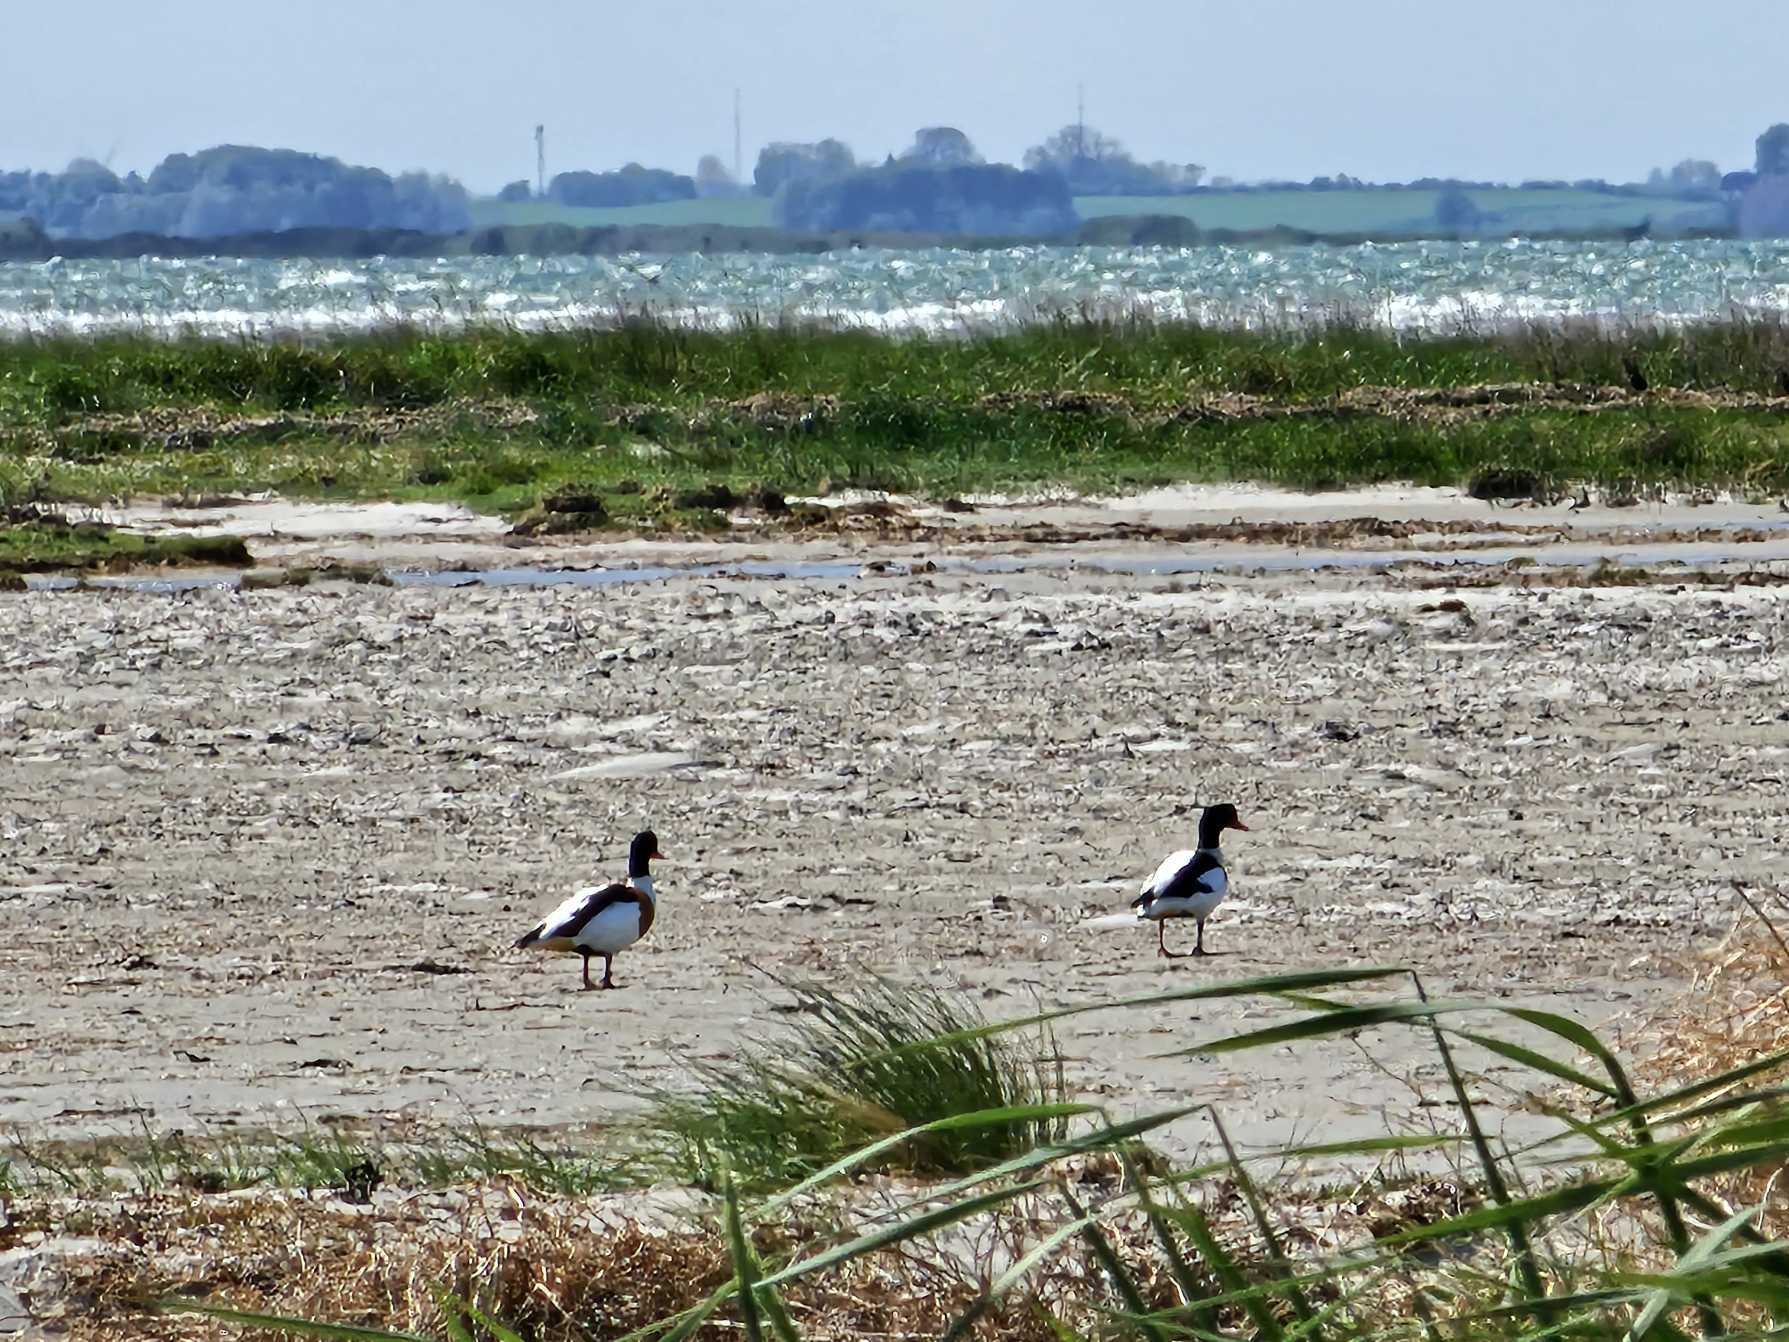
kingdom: Animalia
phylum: Chordata
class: Aves
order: Anseriformes
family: Anatidae
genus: Tadorna
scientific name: Tadorna tadorna
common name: Gravand
